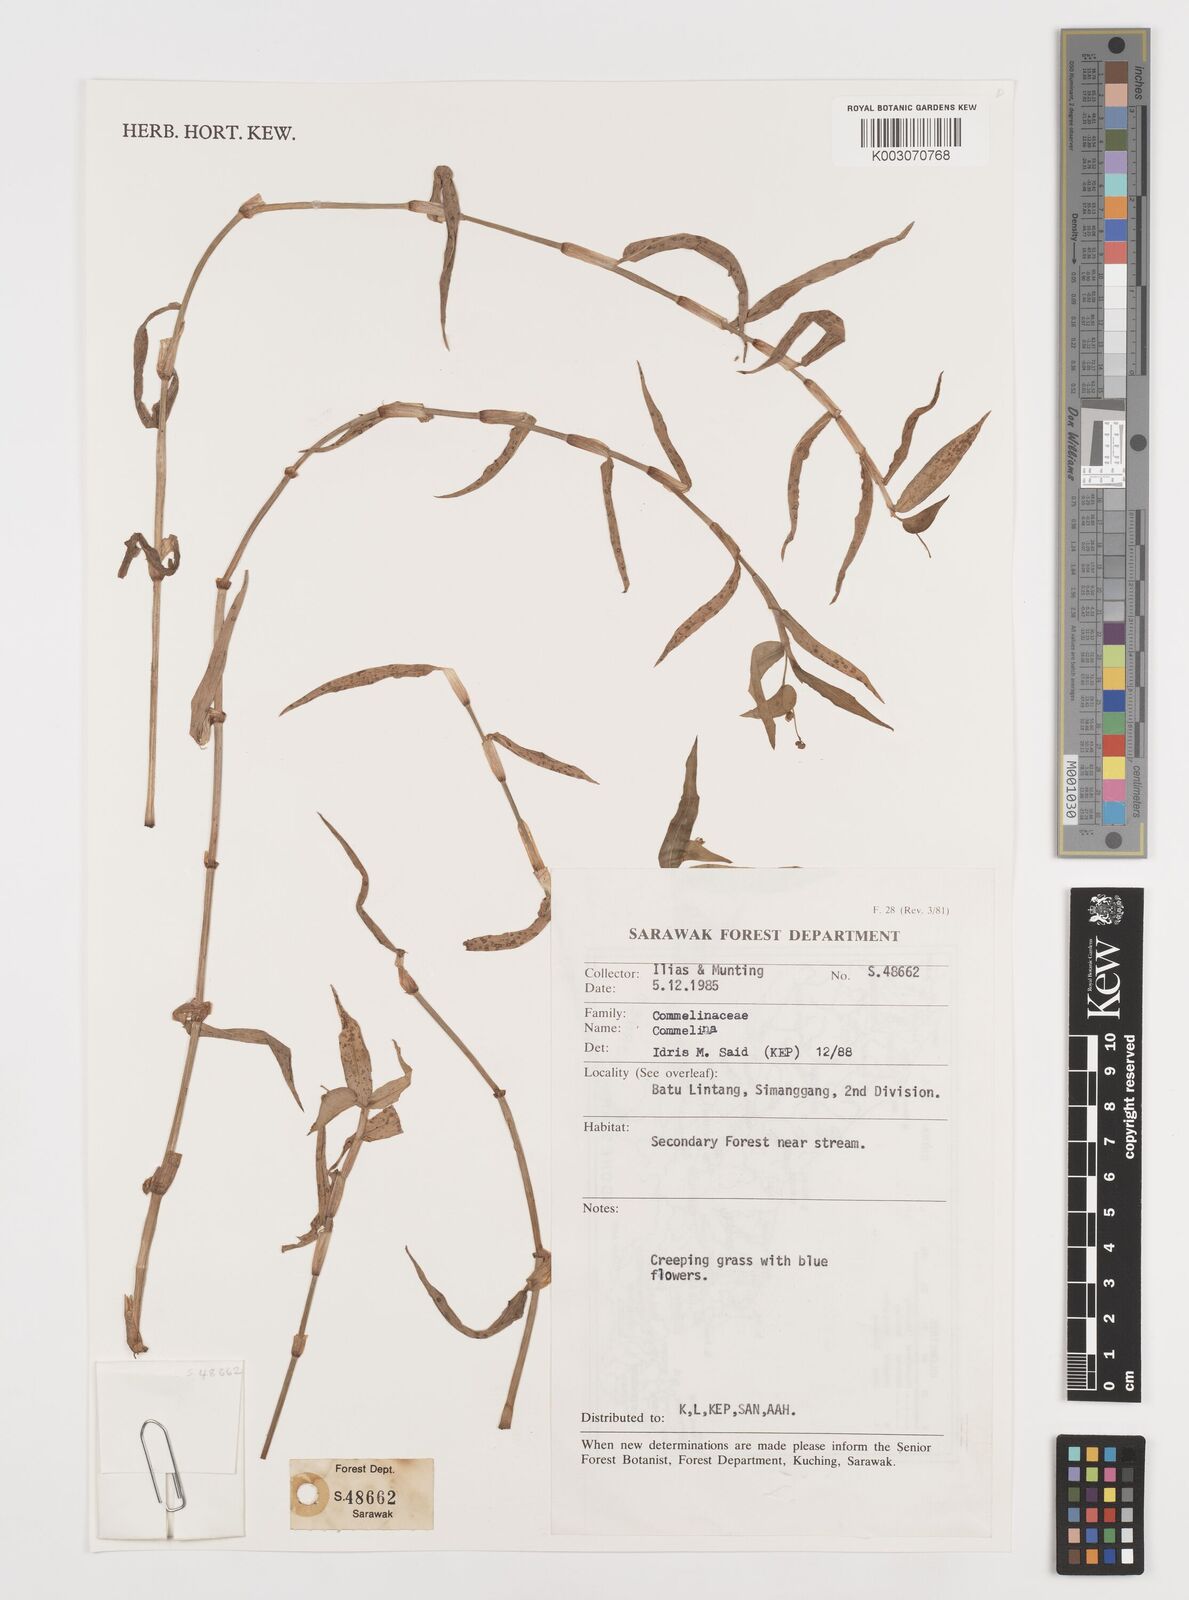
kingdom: Plantae
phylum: Tracheophyta
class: Liliopsida
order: Commelinales
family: Commelinaceae
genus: Commelina
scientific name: Commelina
